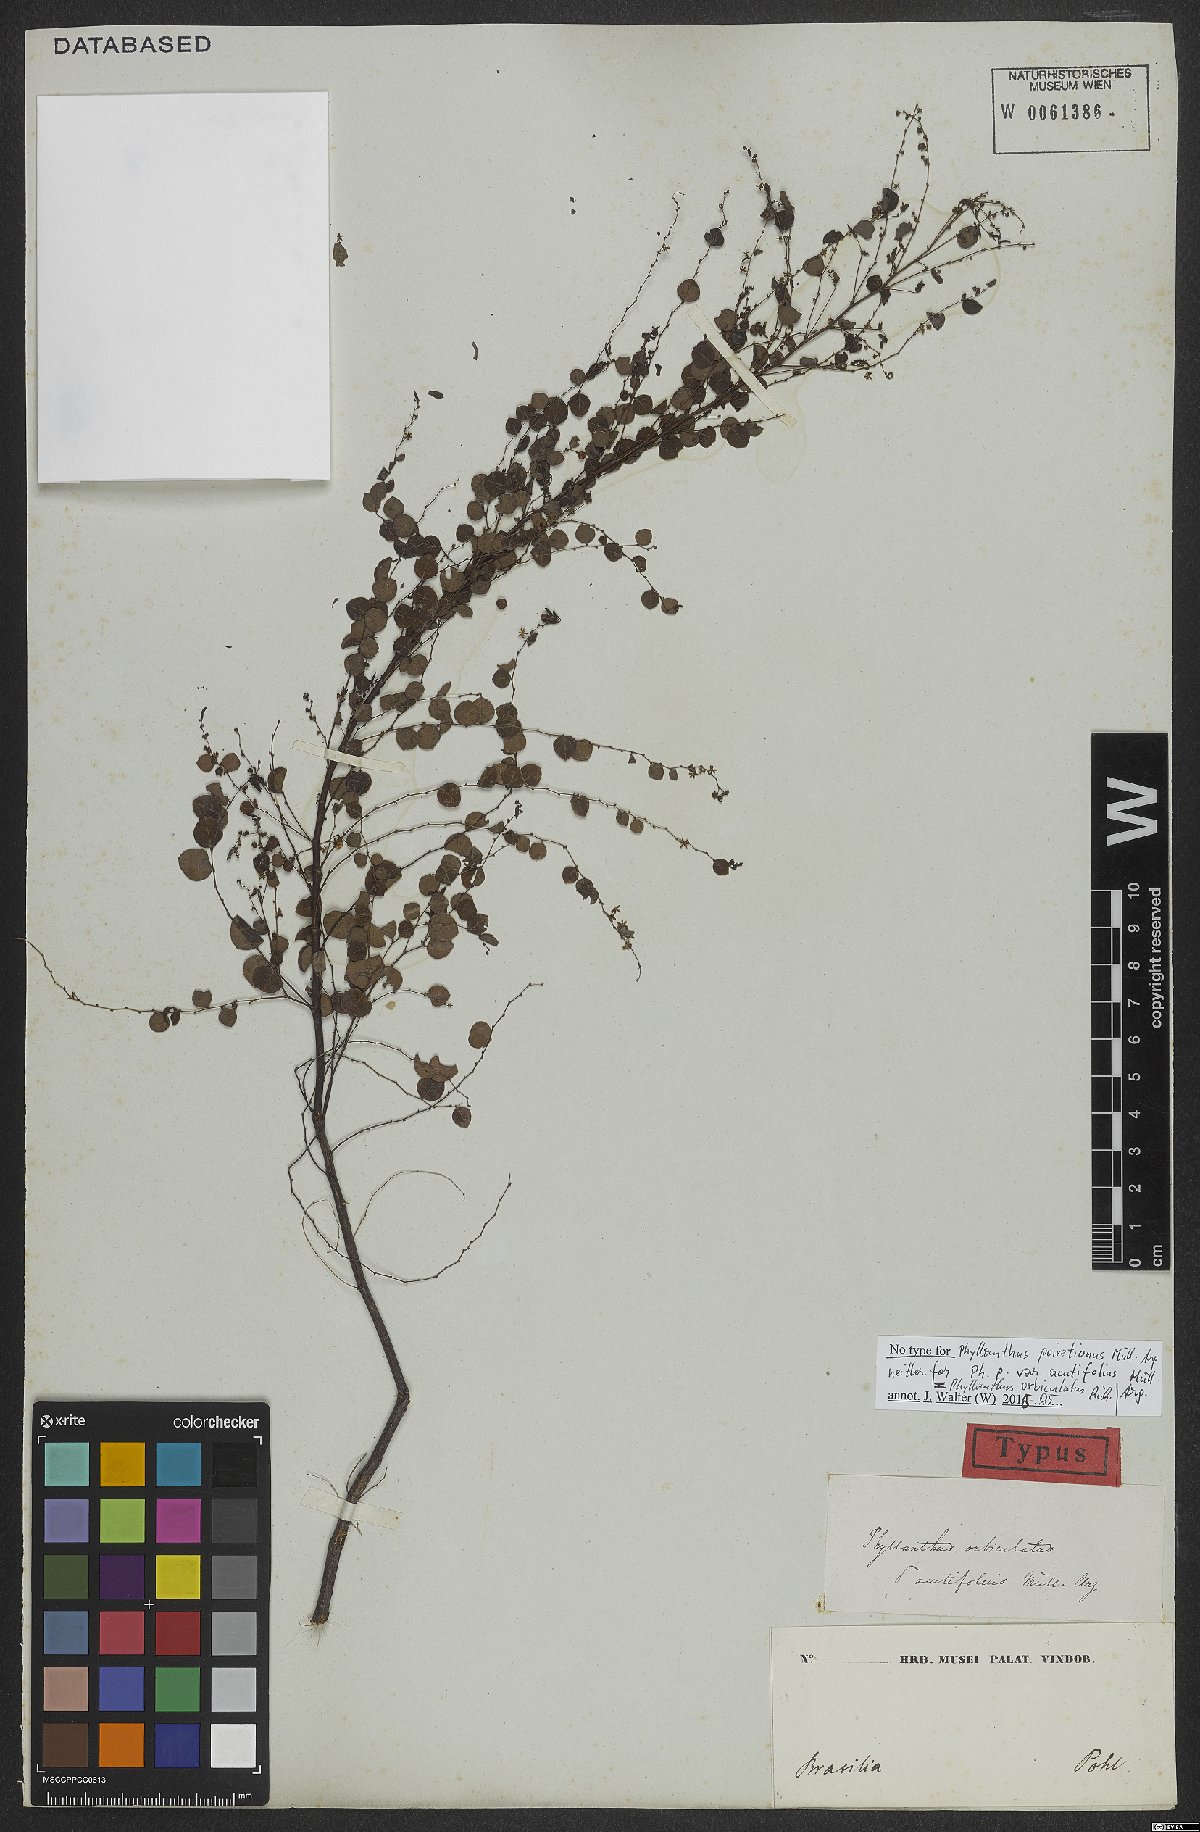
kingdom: Plantae
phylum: Tracheophyta
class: Magnoliopsida
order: Malpighiales
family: Phyllanthaceae
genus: Phyllanthus
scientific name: Phyllanthus orbiculatus
